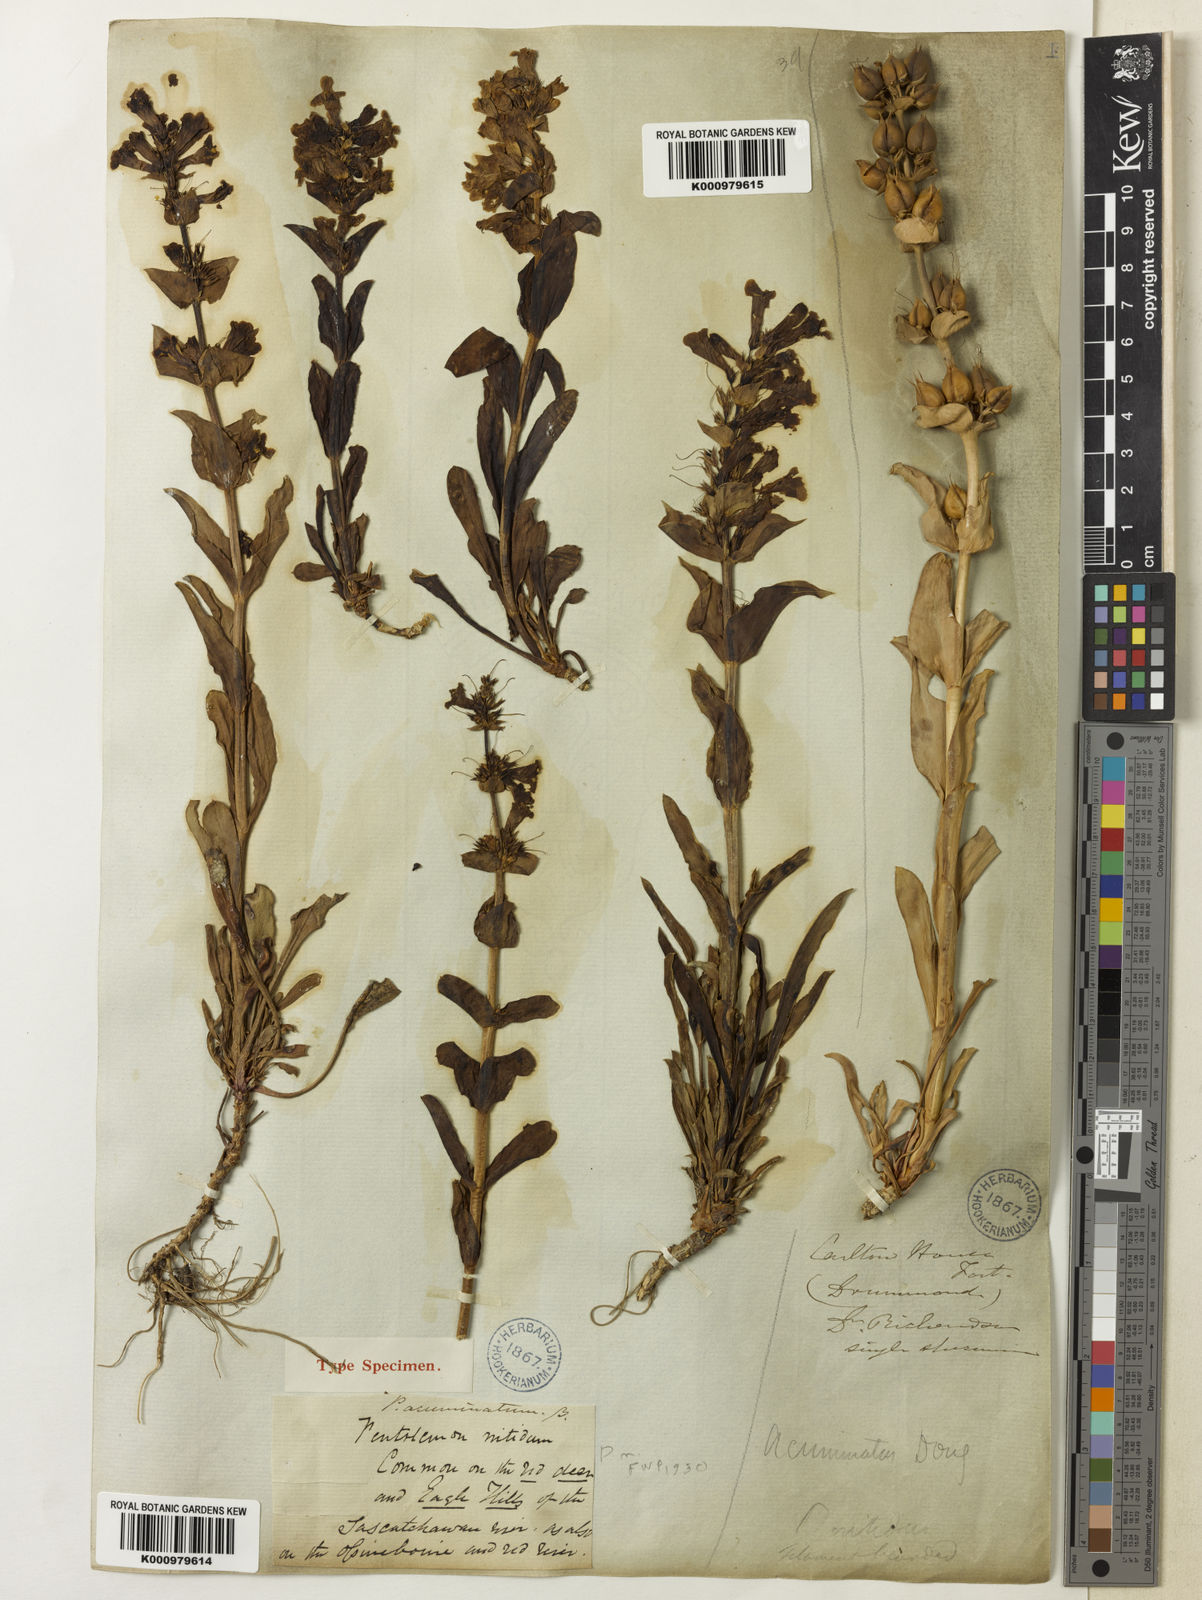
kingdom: Plantae
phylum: Tracheophyta
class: Magnoliopsida
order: Lamiales
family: Plantaginaceae
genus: Penstemon
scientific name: Penstemon nitidus
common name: Shining penstemon
